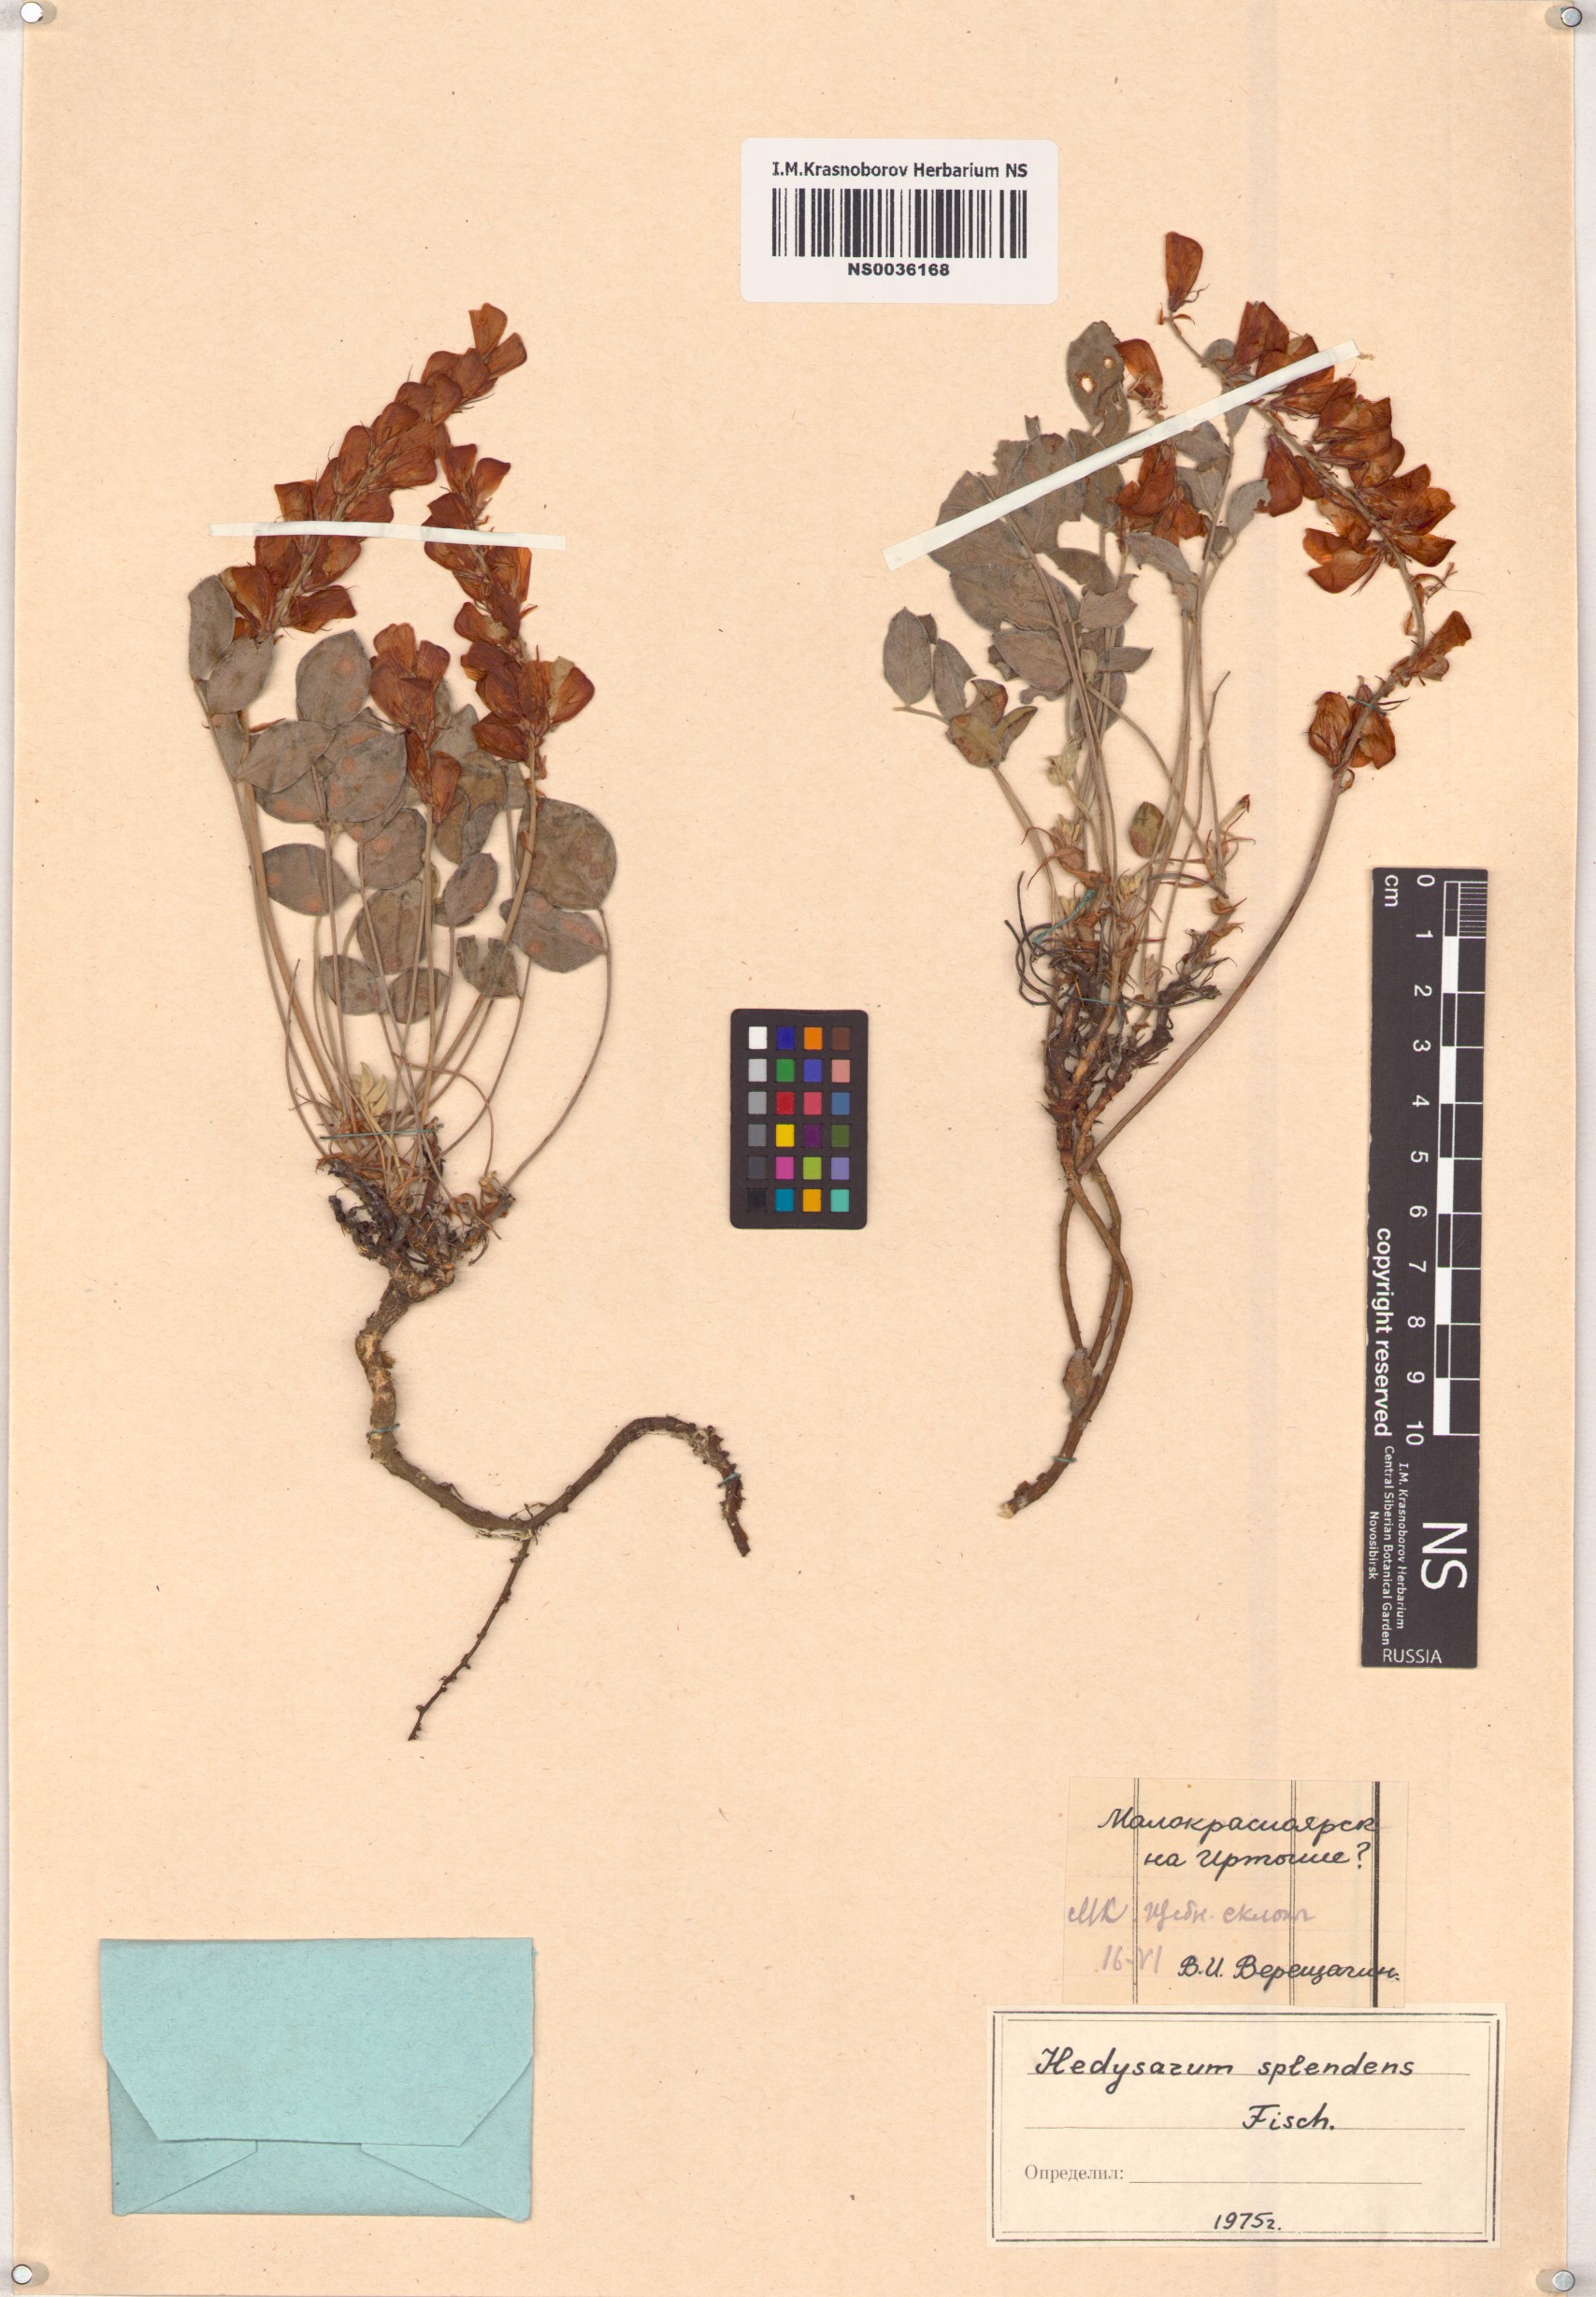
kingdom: Plantae
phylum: Tracheophyta
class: Magnoliopsida
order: Fabales
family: Fabaceae
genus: Hedysarum
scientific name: Hedysarum splendens
